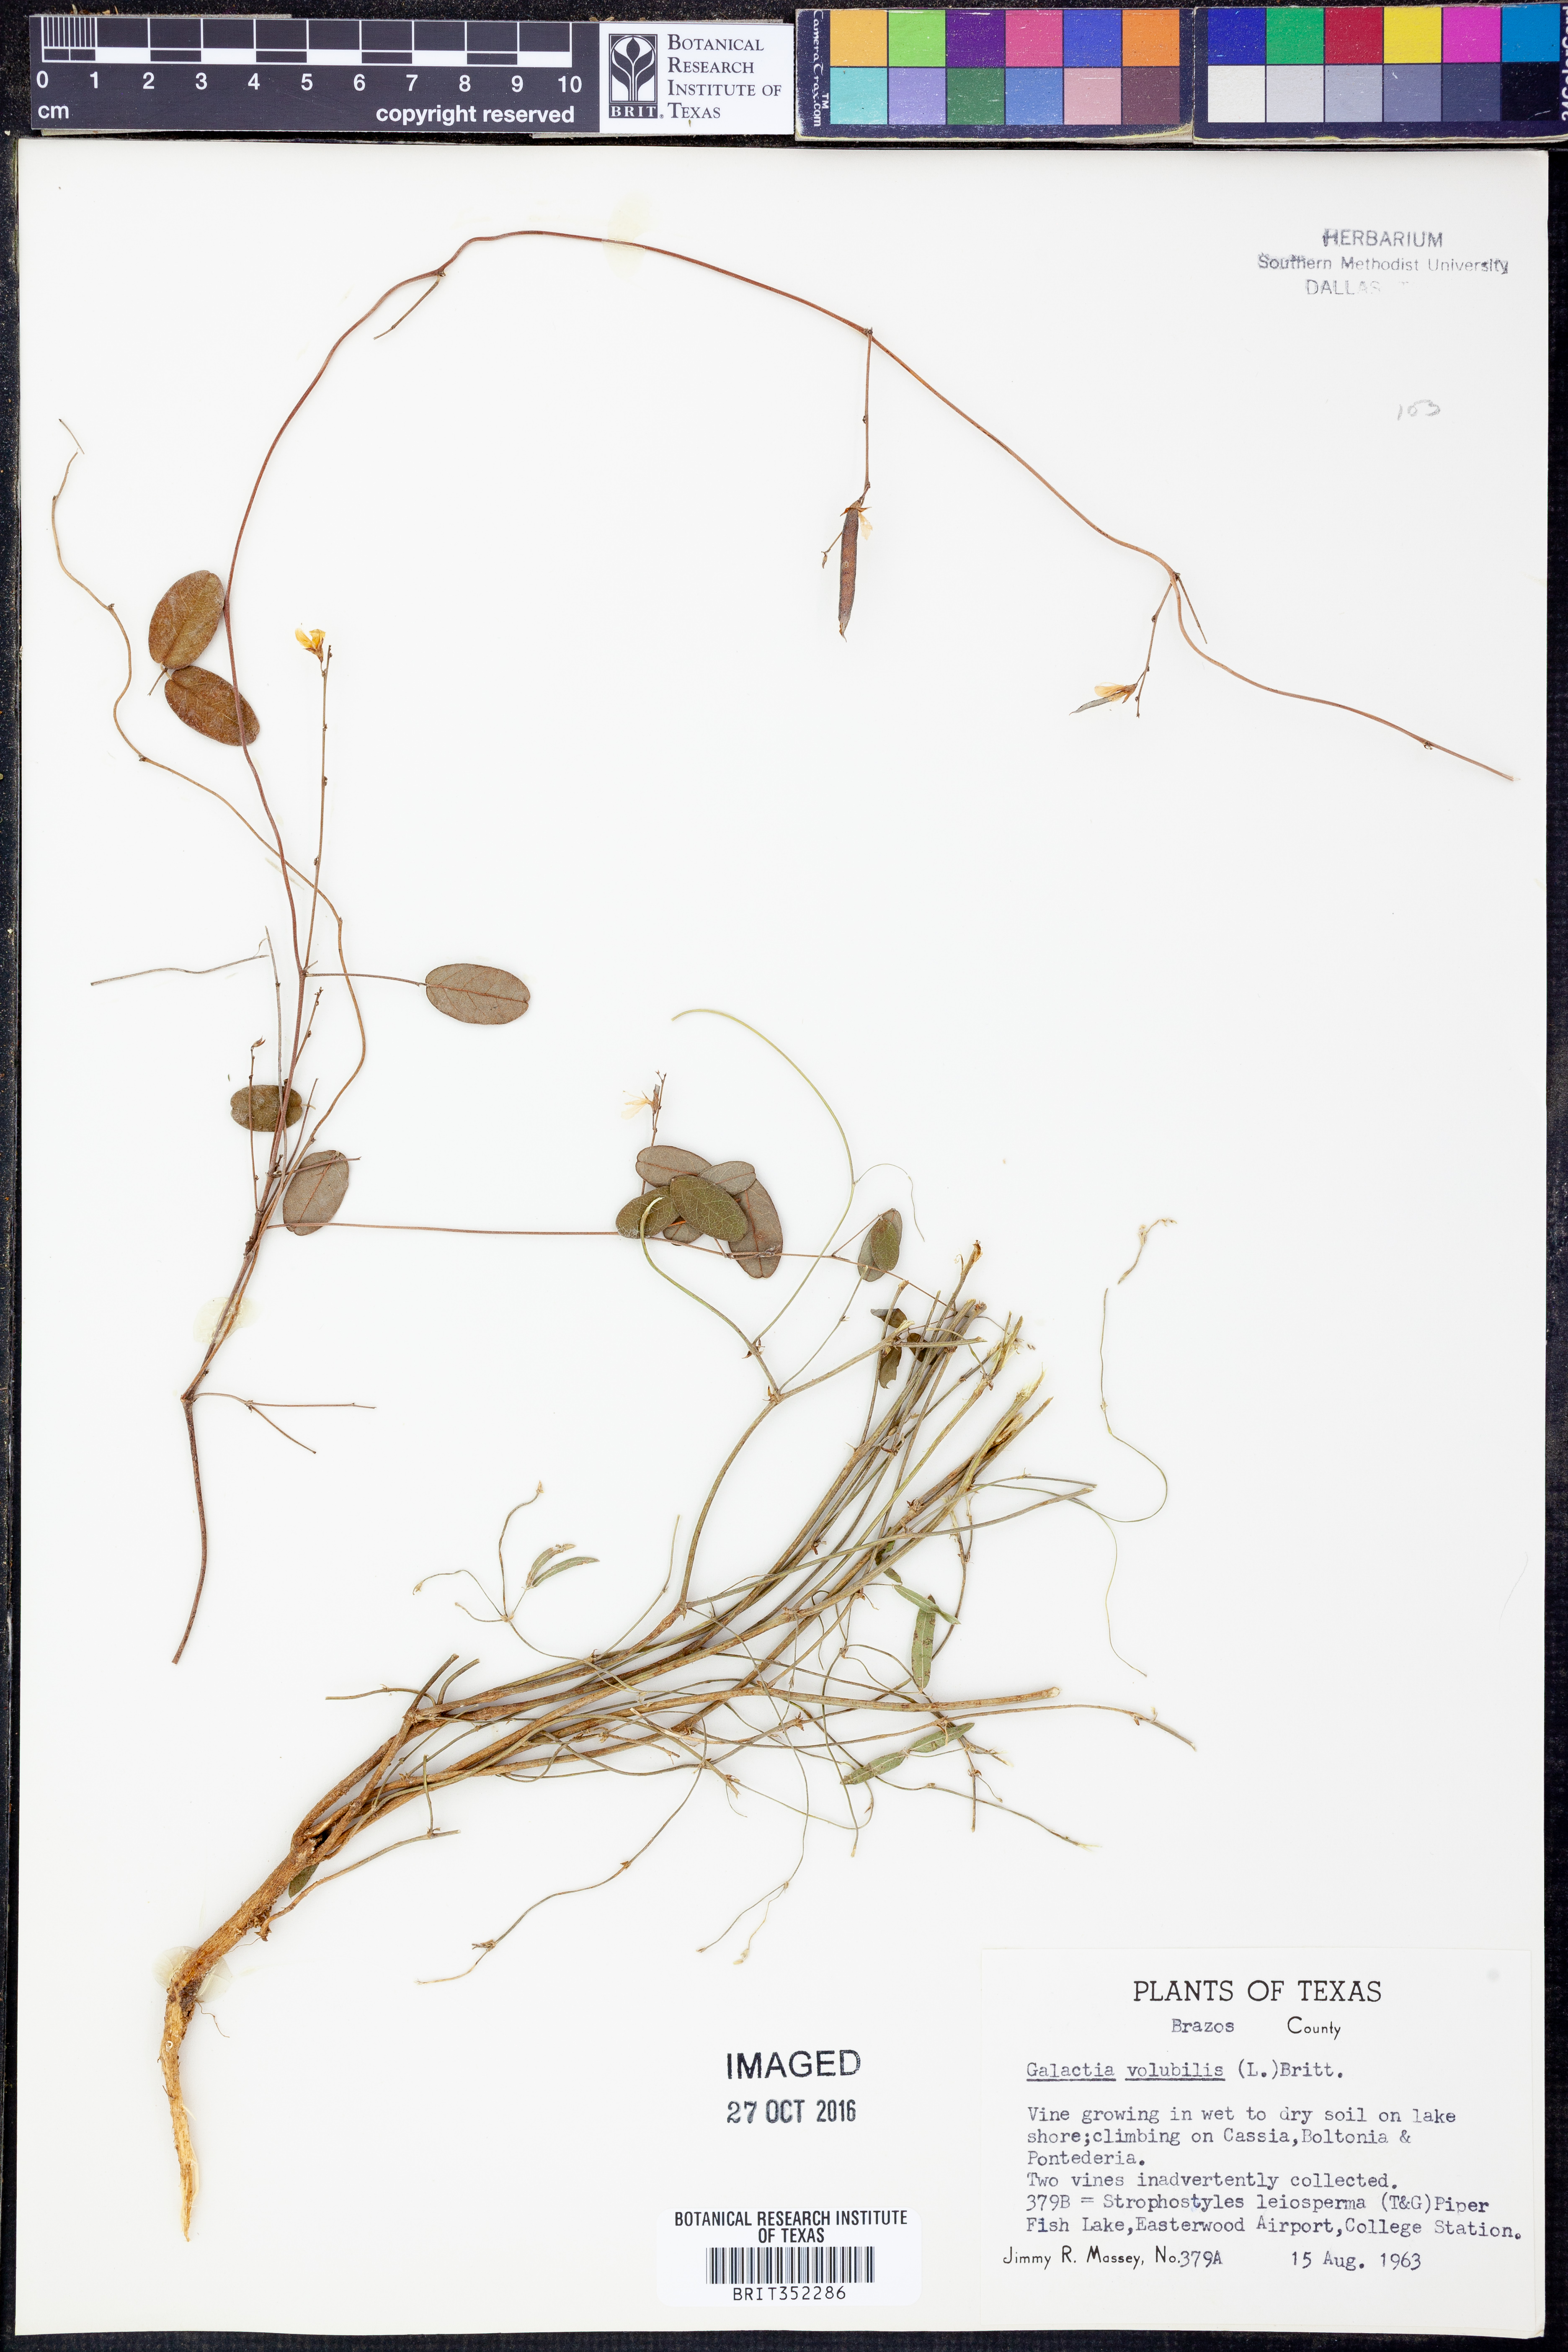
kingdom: Plantae
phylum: Tracheophyta
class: Magnoliopsida
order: Fabales
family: Fabaceae
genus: Galactia
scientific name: Galactia volubilis
